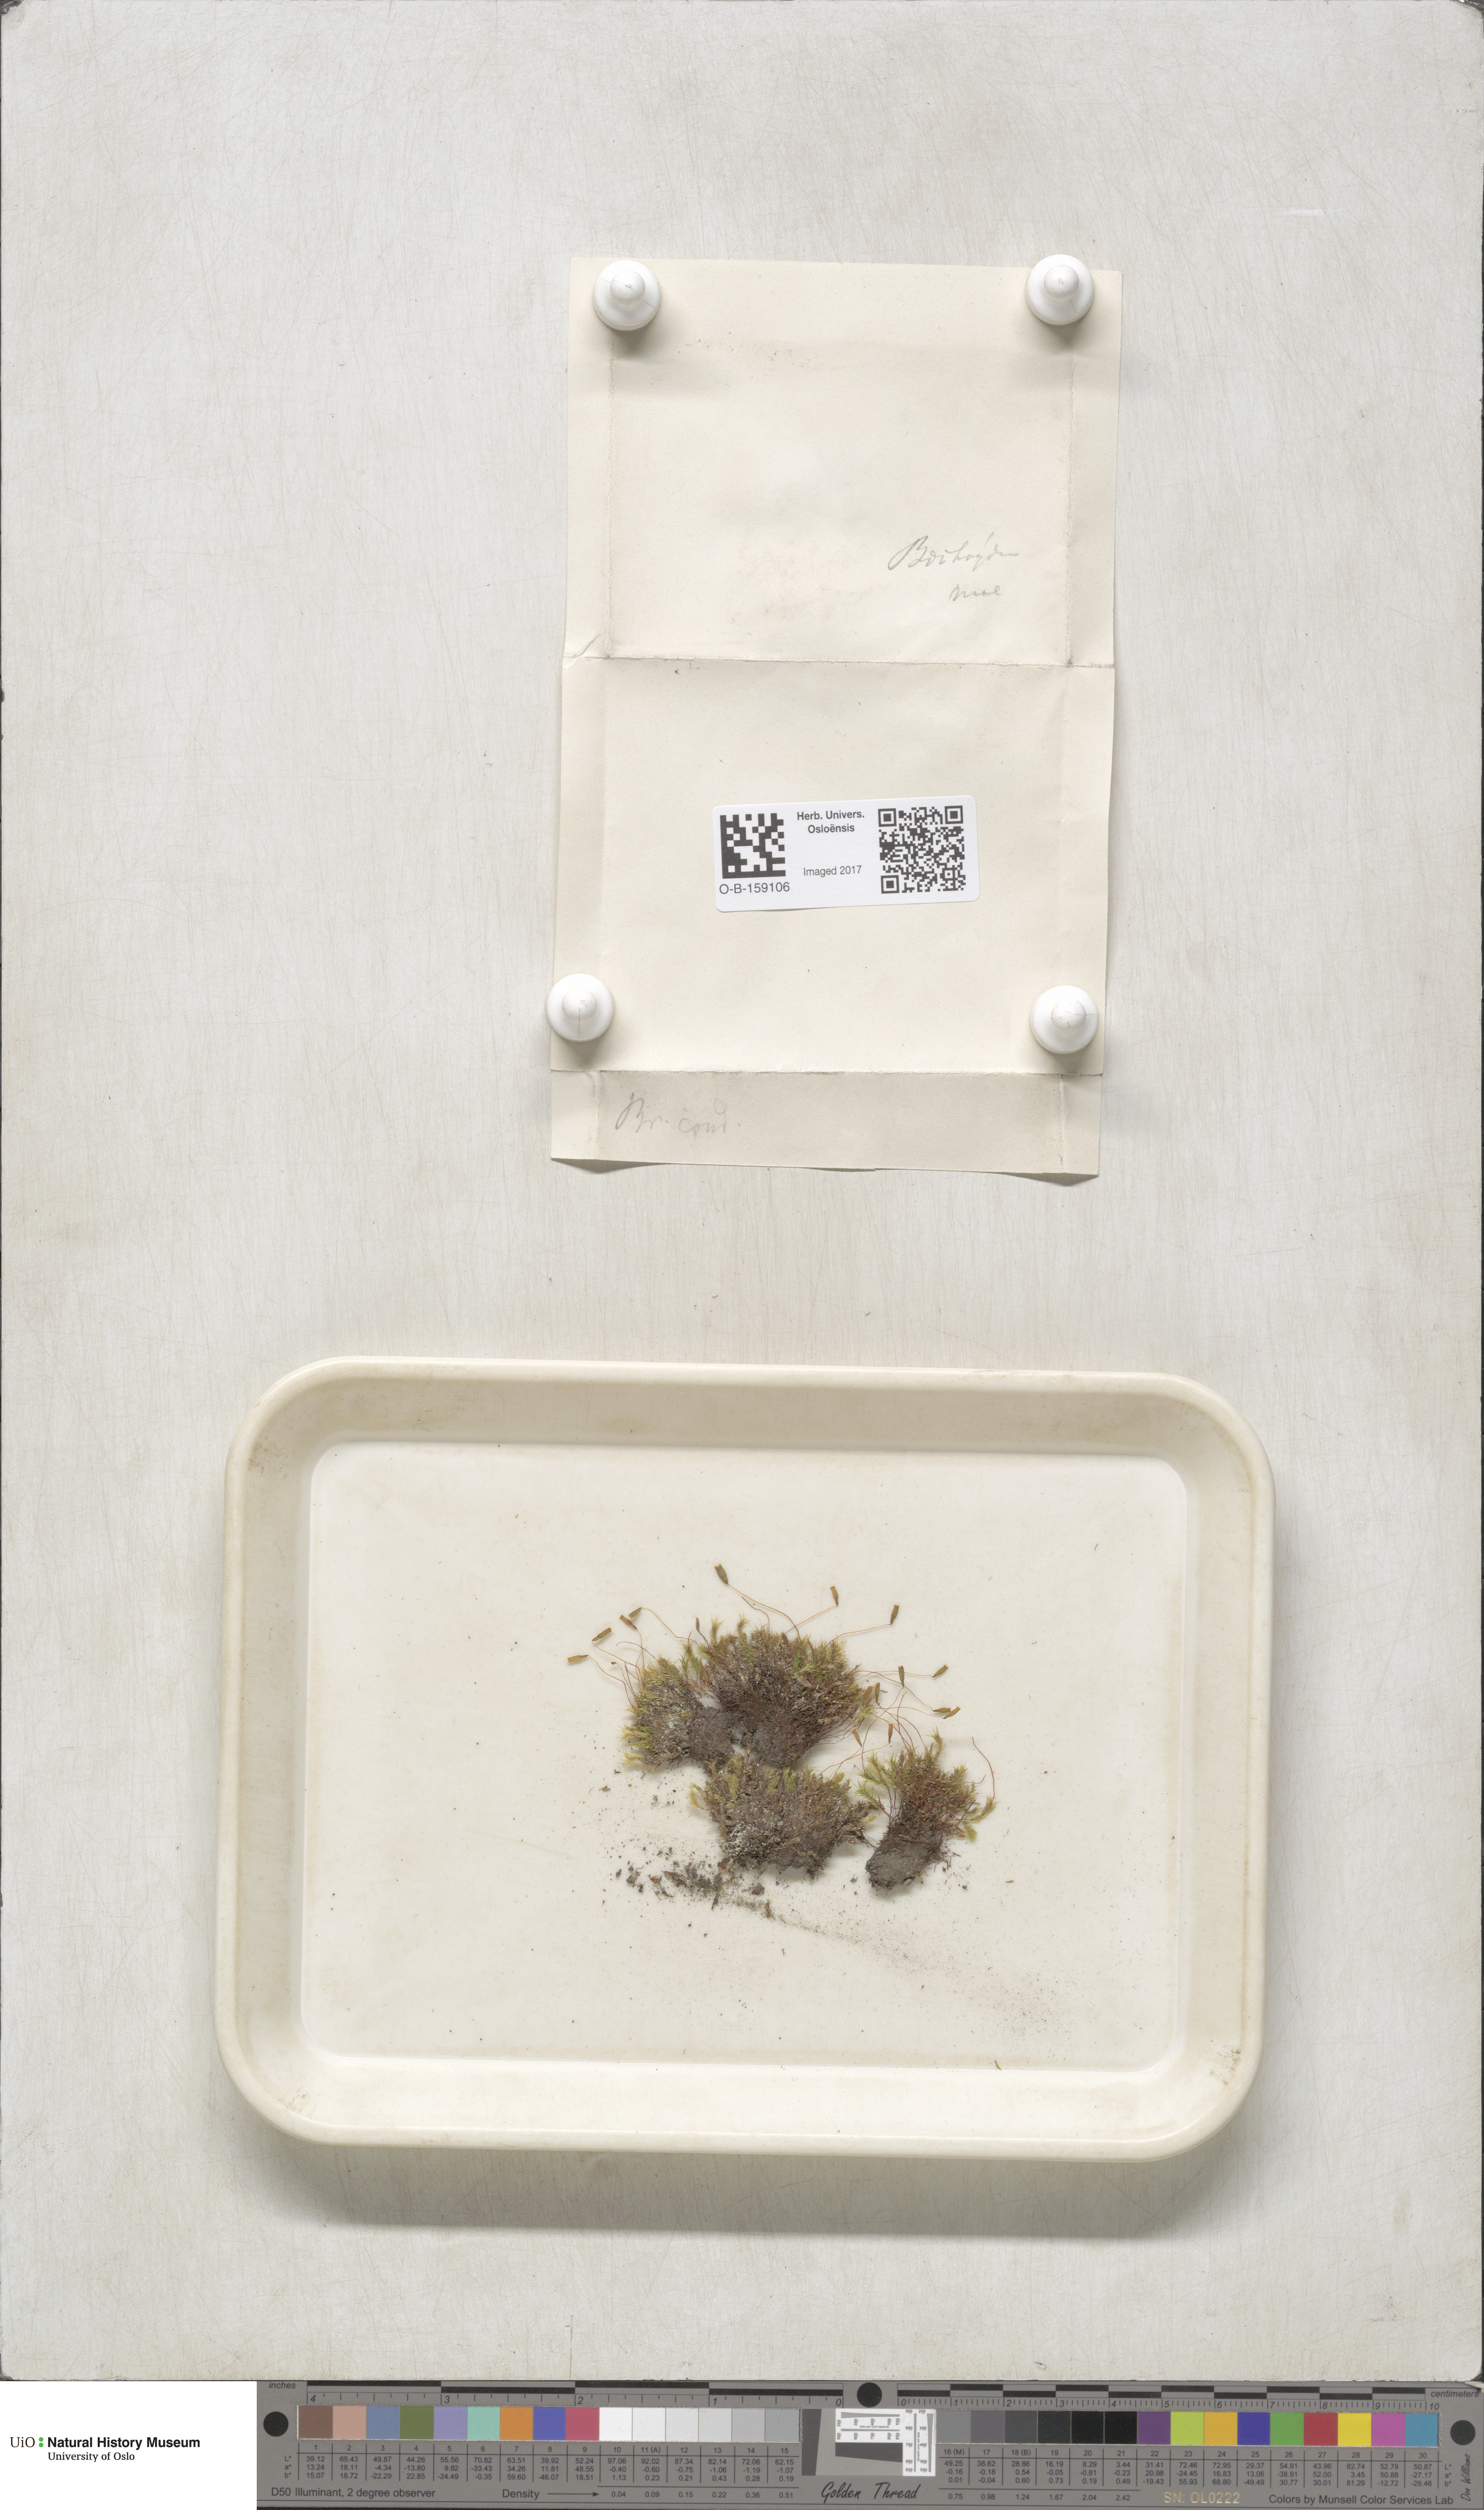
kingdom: Plantae
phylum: Bryophyta
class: Bryopsida
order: Bryales
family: Mniaceae
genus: Pohlia
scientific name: Pohlia cruda
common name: Opal nodding moss
